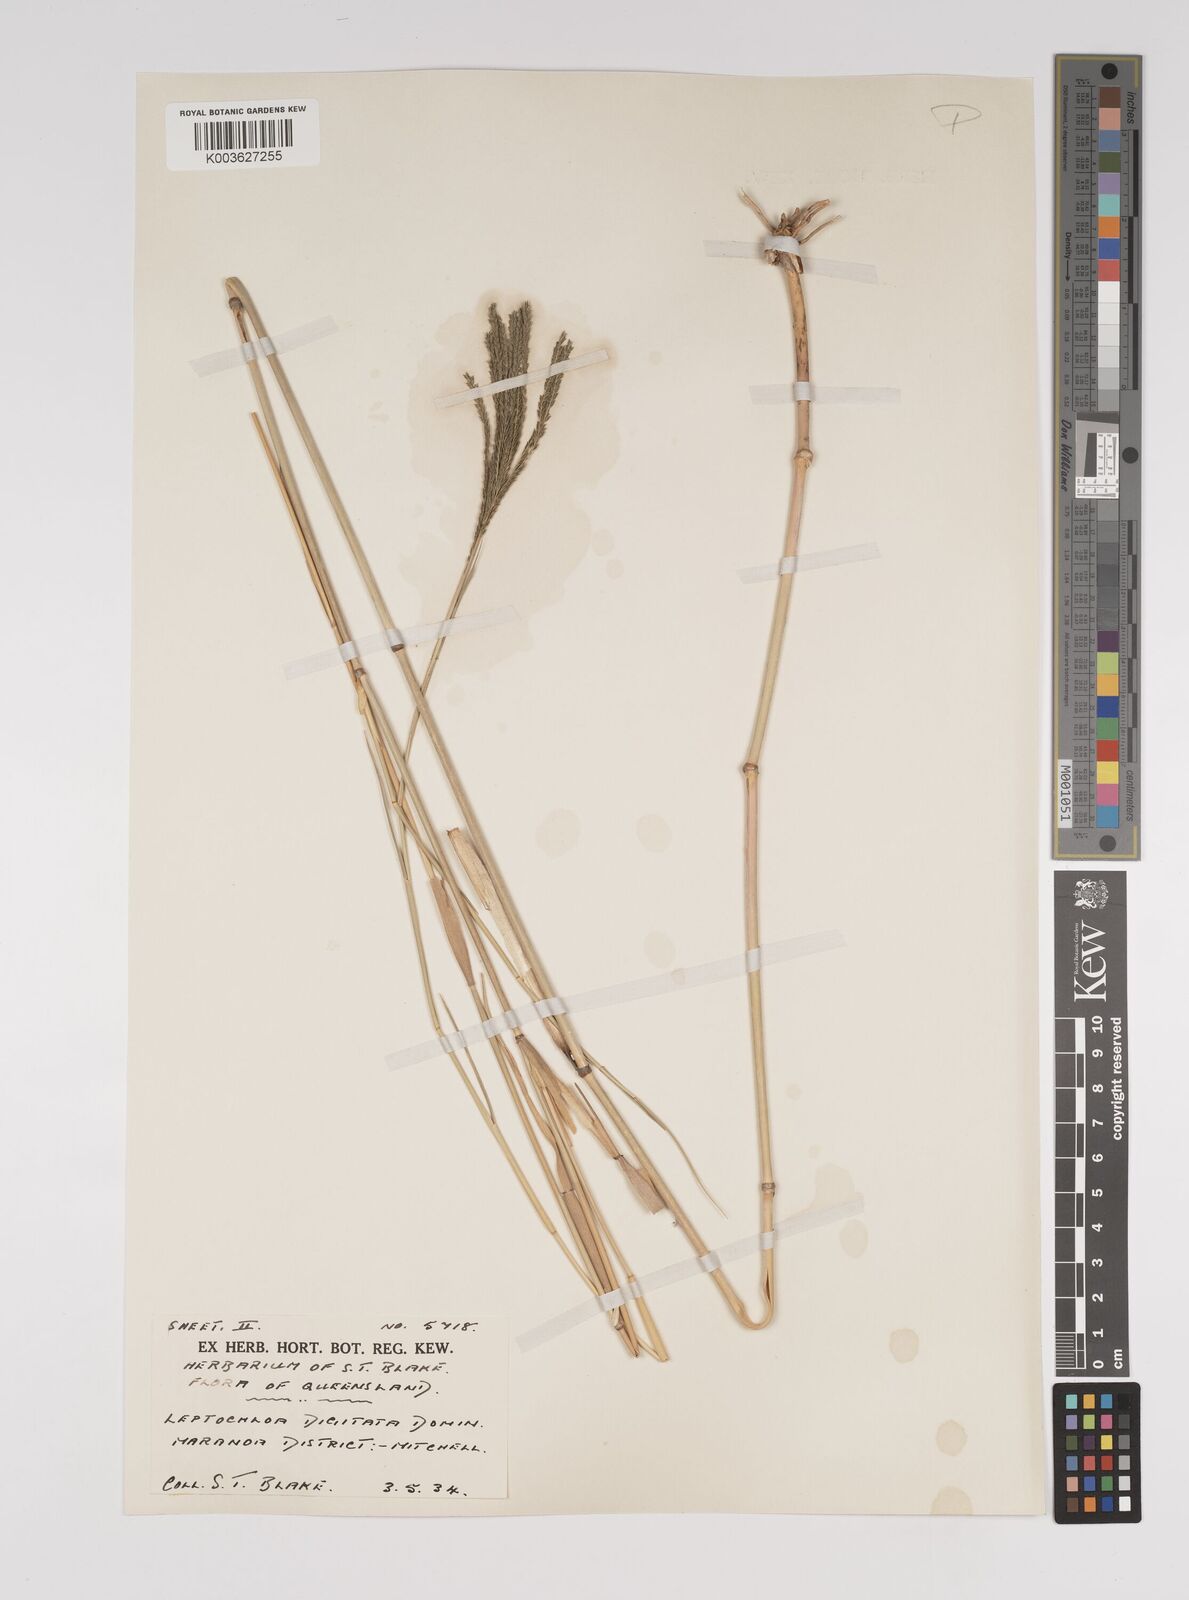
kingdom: Plantae
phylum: Tracheophyta
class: Liliopsida
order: Poales
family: Poaceae
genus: Leptochloa
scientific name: Leptochloa digitata
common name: Finger sprangletop
